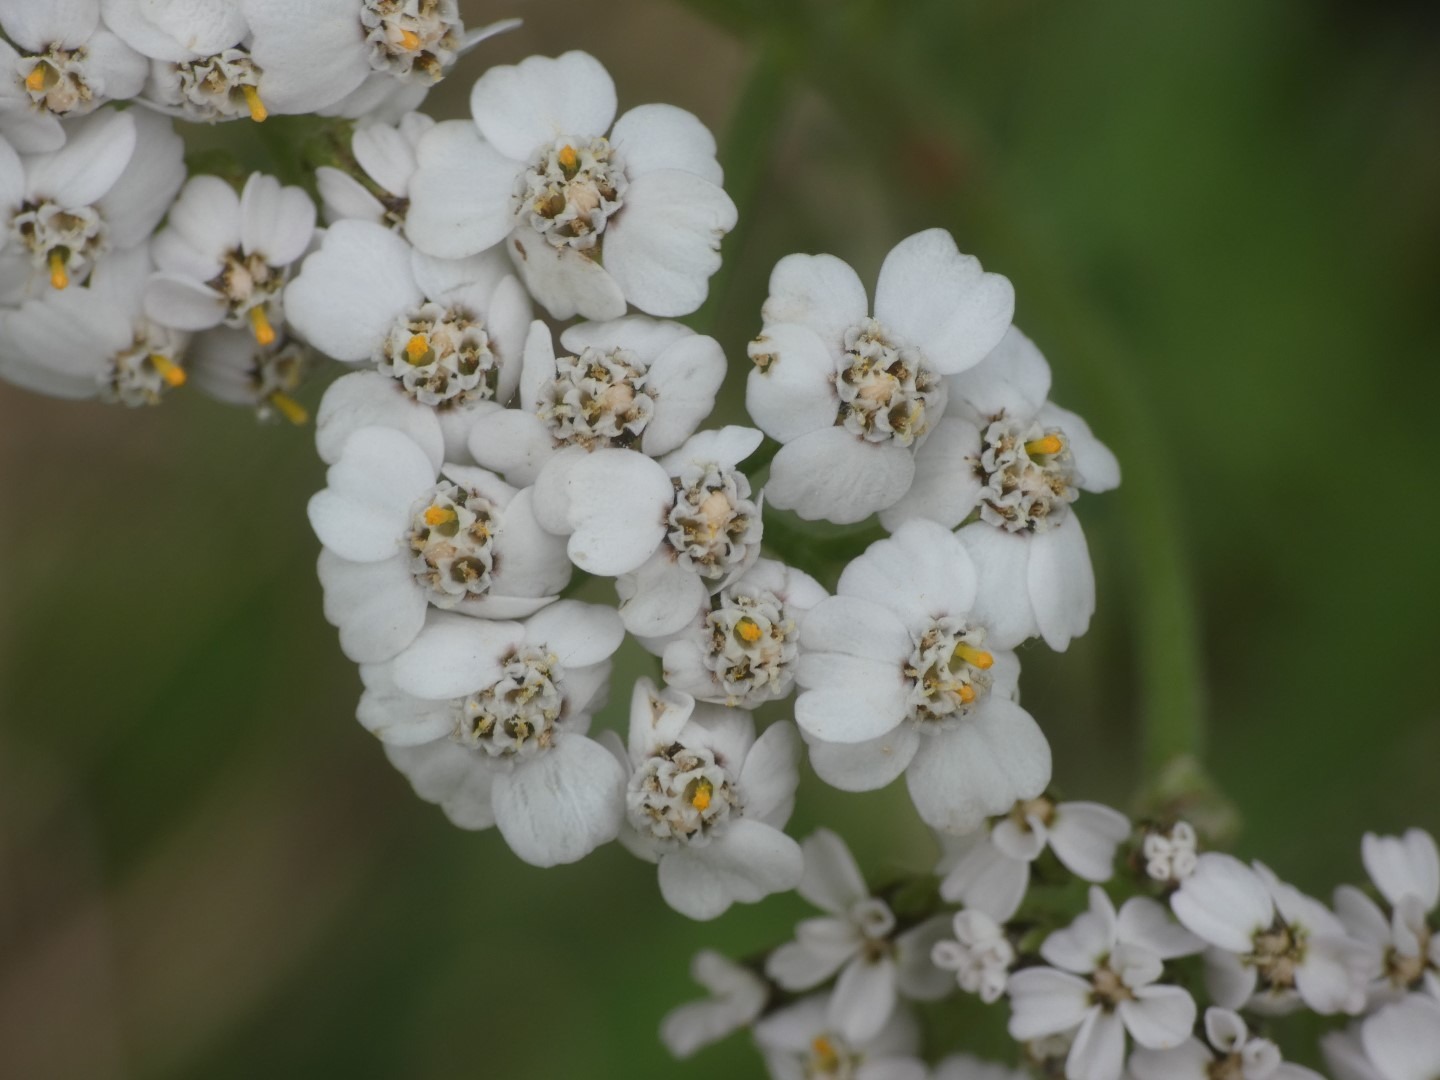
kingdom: Plantae
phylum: Tracheophyta
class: Magnoliopsida
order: Asterales
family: Asteraceae
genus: Achillea
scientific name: Achillea millefolium
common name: Almindelig røllike
